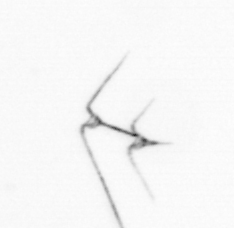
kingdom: Chromista
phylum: Myzozoa
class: Dinophyceae
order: Gonyaulacales
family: Ceratiaceae
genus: Ceratium
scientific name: Ceratium
